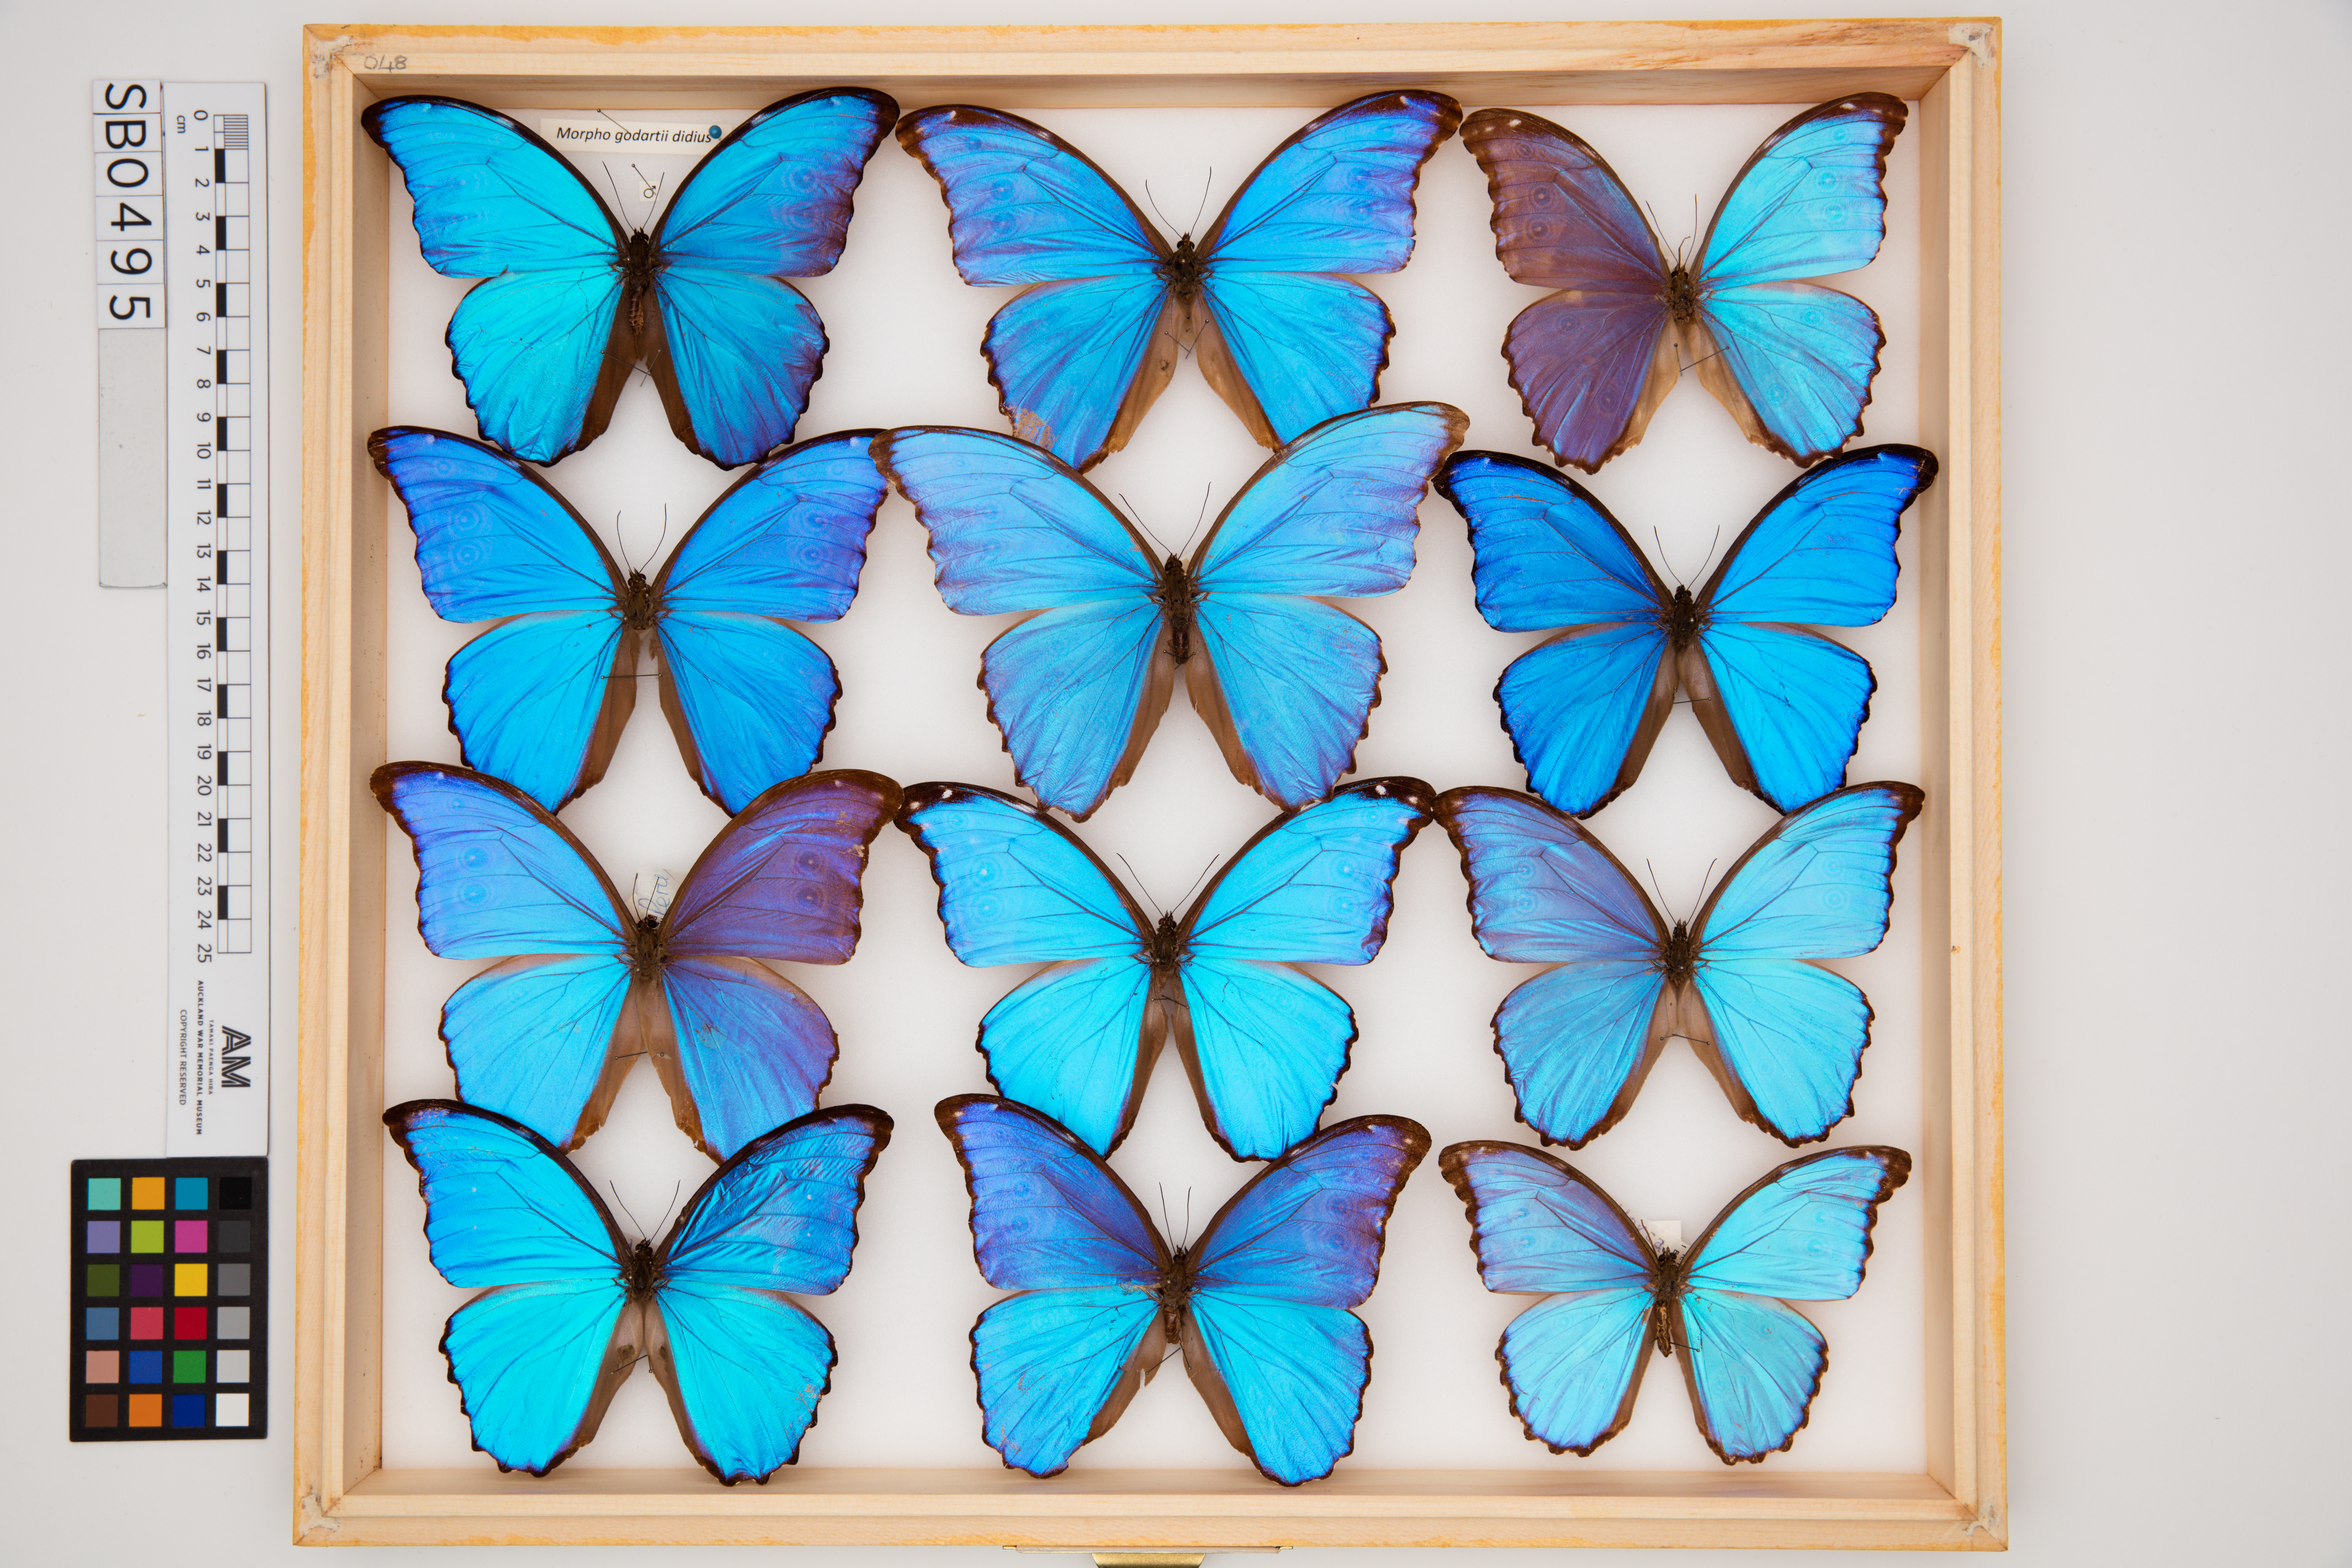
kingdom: Animalia
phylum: Arthropoda
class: Insecta
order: Lepidoptera
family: Nymphalidae
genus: Morpho
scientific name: Morpho godartii
